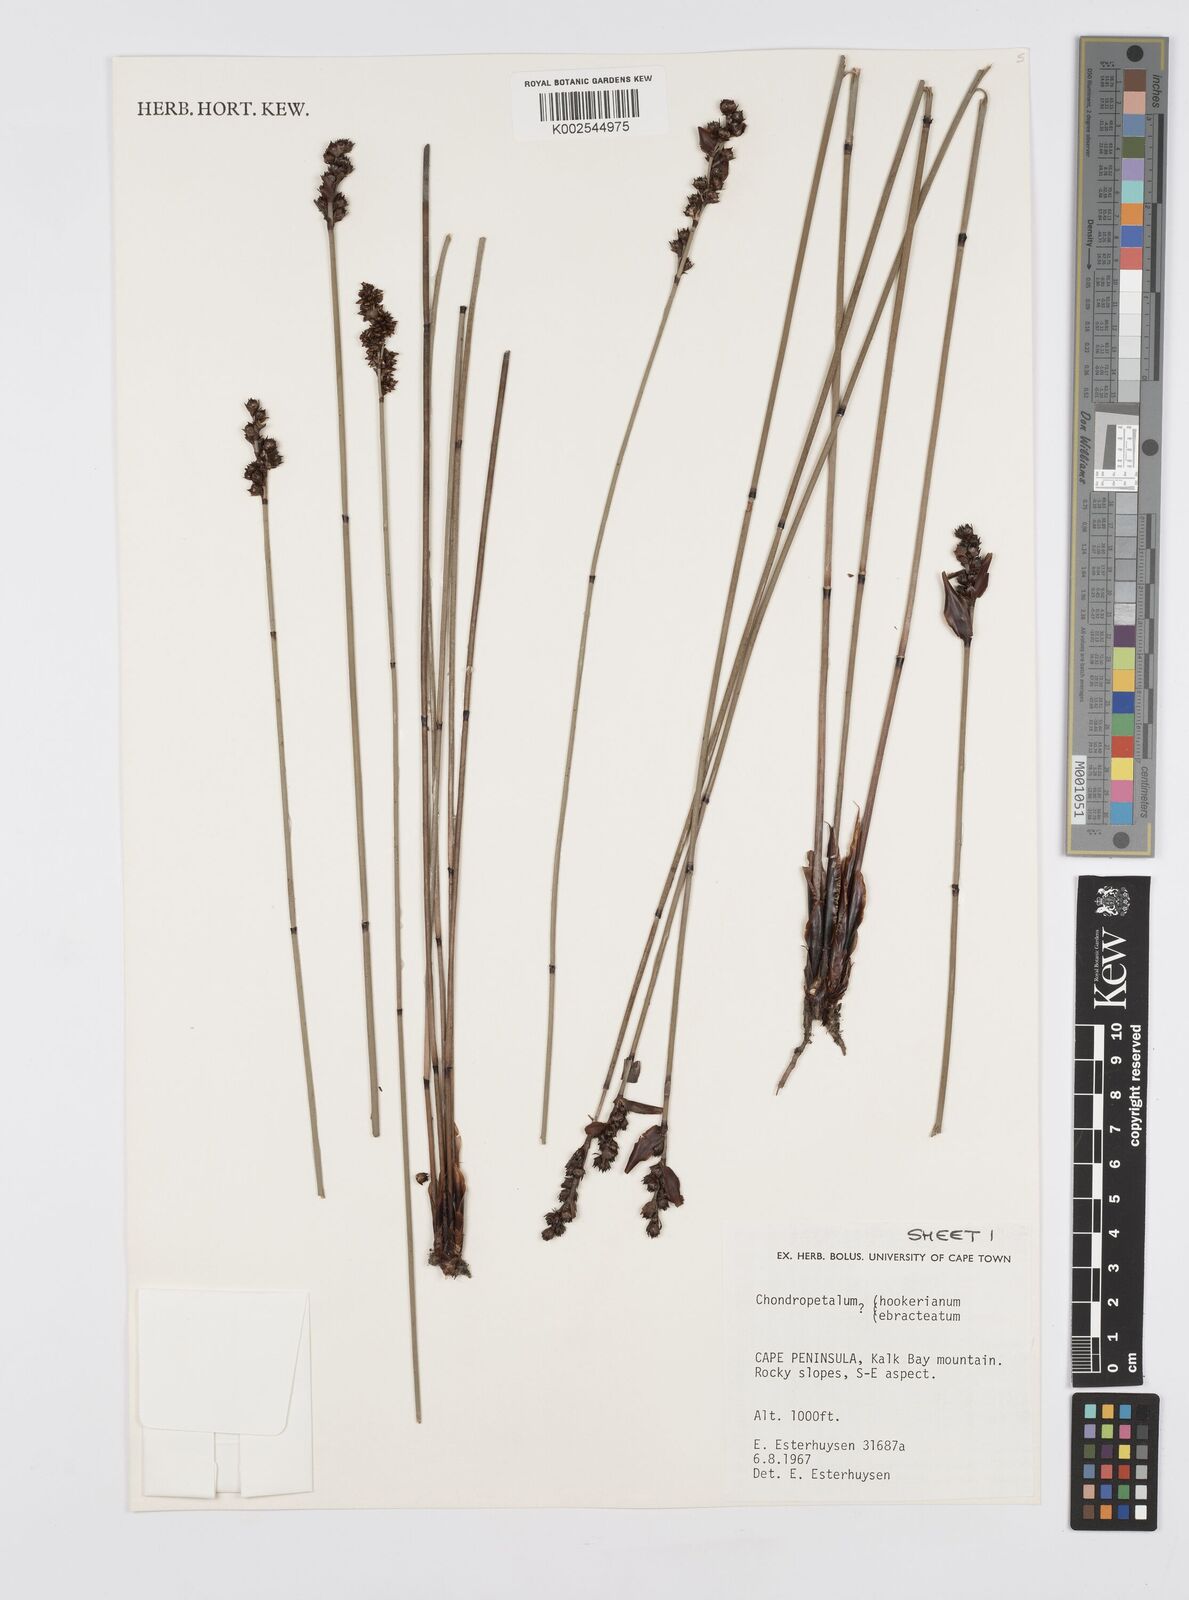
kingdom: Plantae
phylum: Tracheophyta
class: Liliopsida
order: Poales
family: Restionaceae
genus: Elegia
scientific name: Elegia hookeriana
